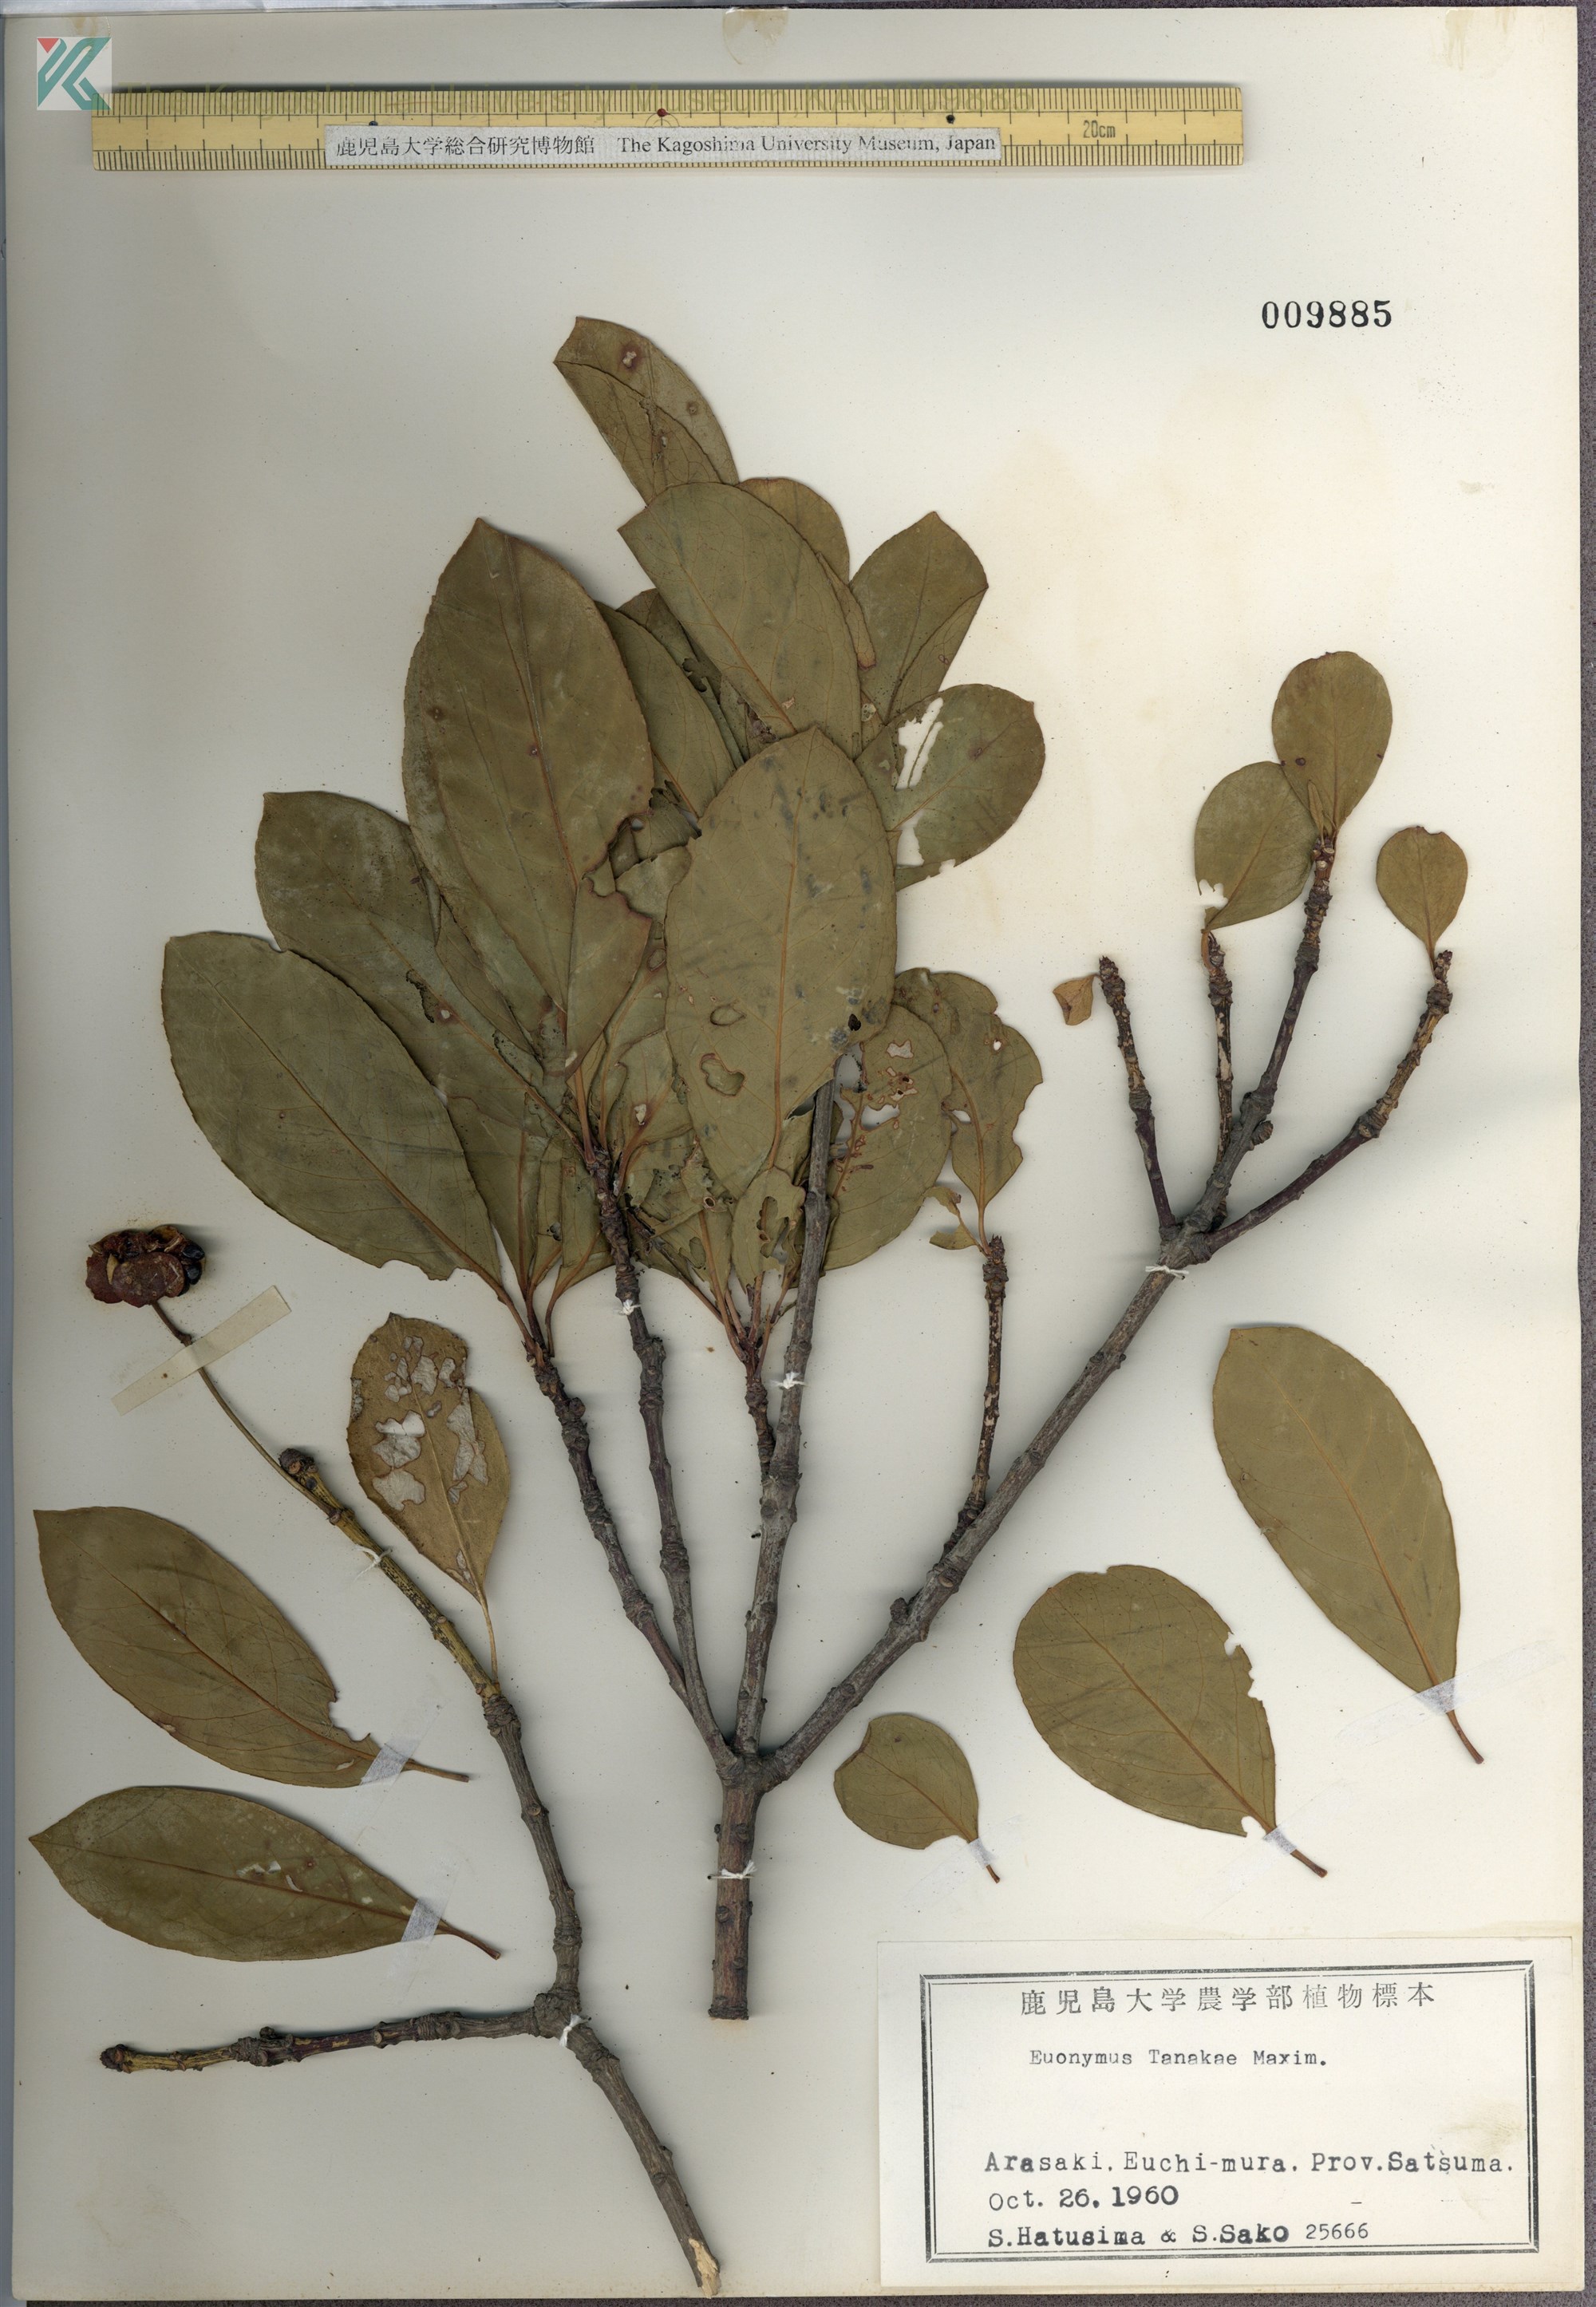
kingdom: Plantae
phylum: Tracheophyta
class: Magnoliopsida
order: Celastrales
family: Celastraceae
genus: Euonymus
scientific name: Euonymus carnosus
